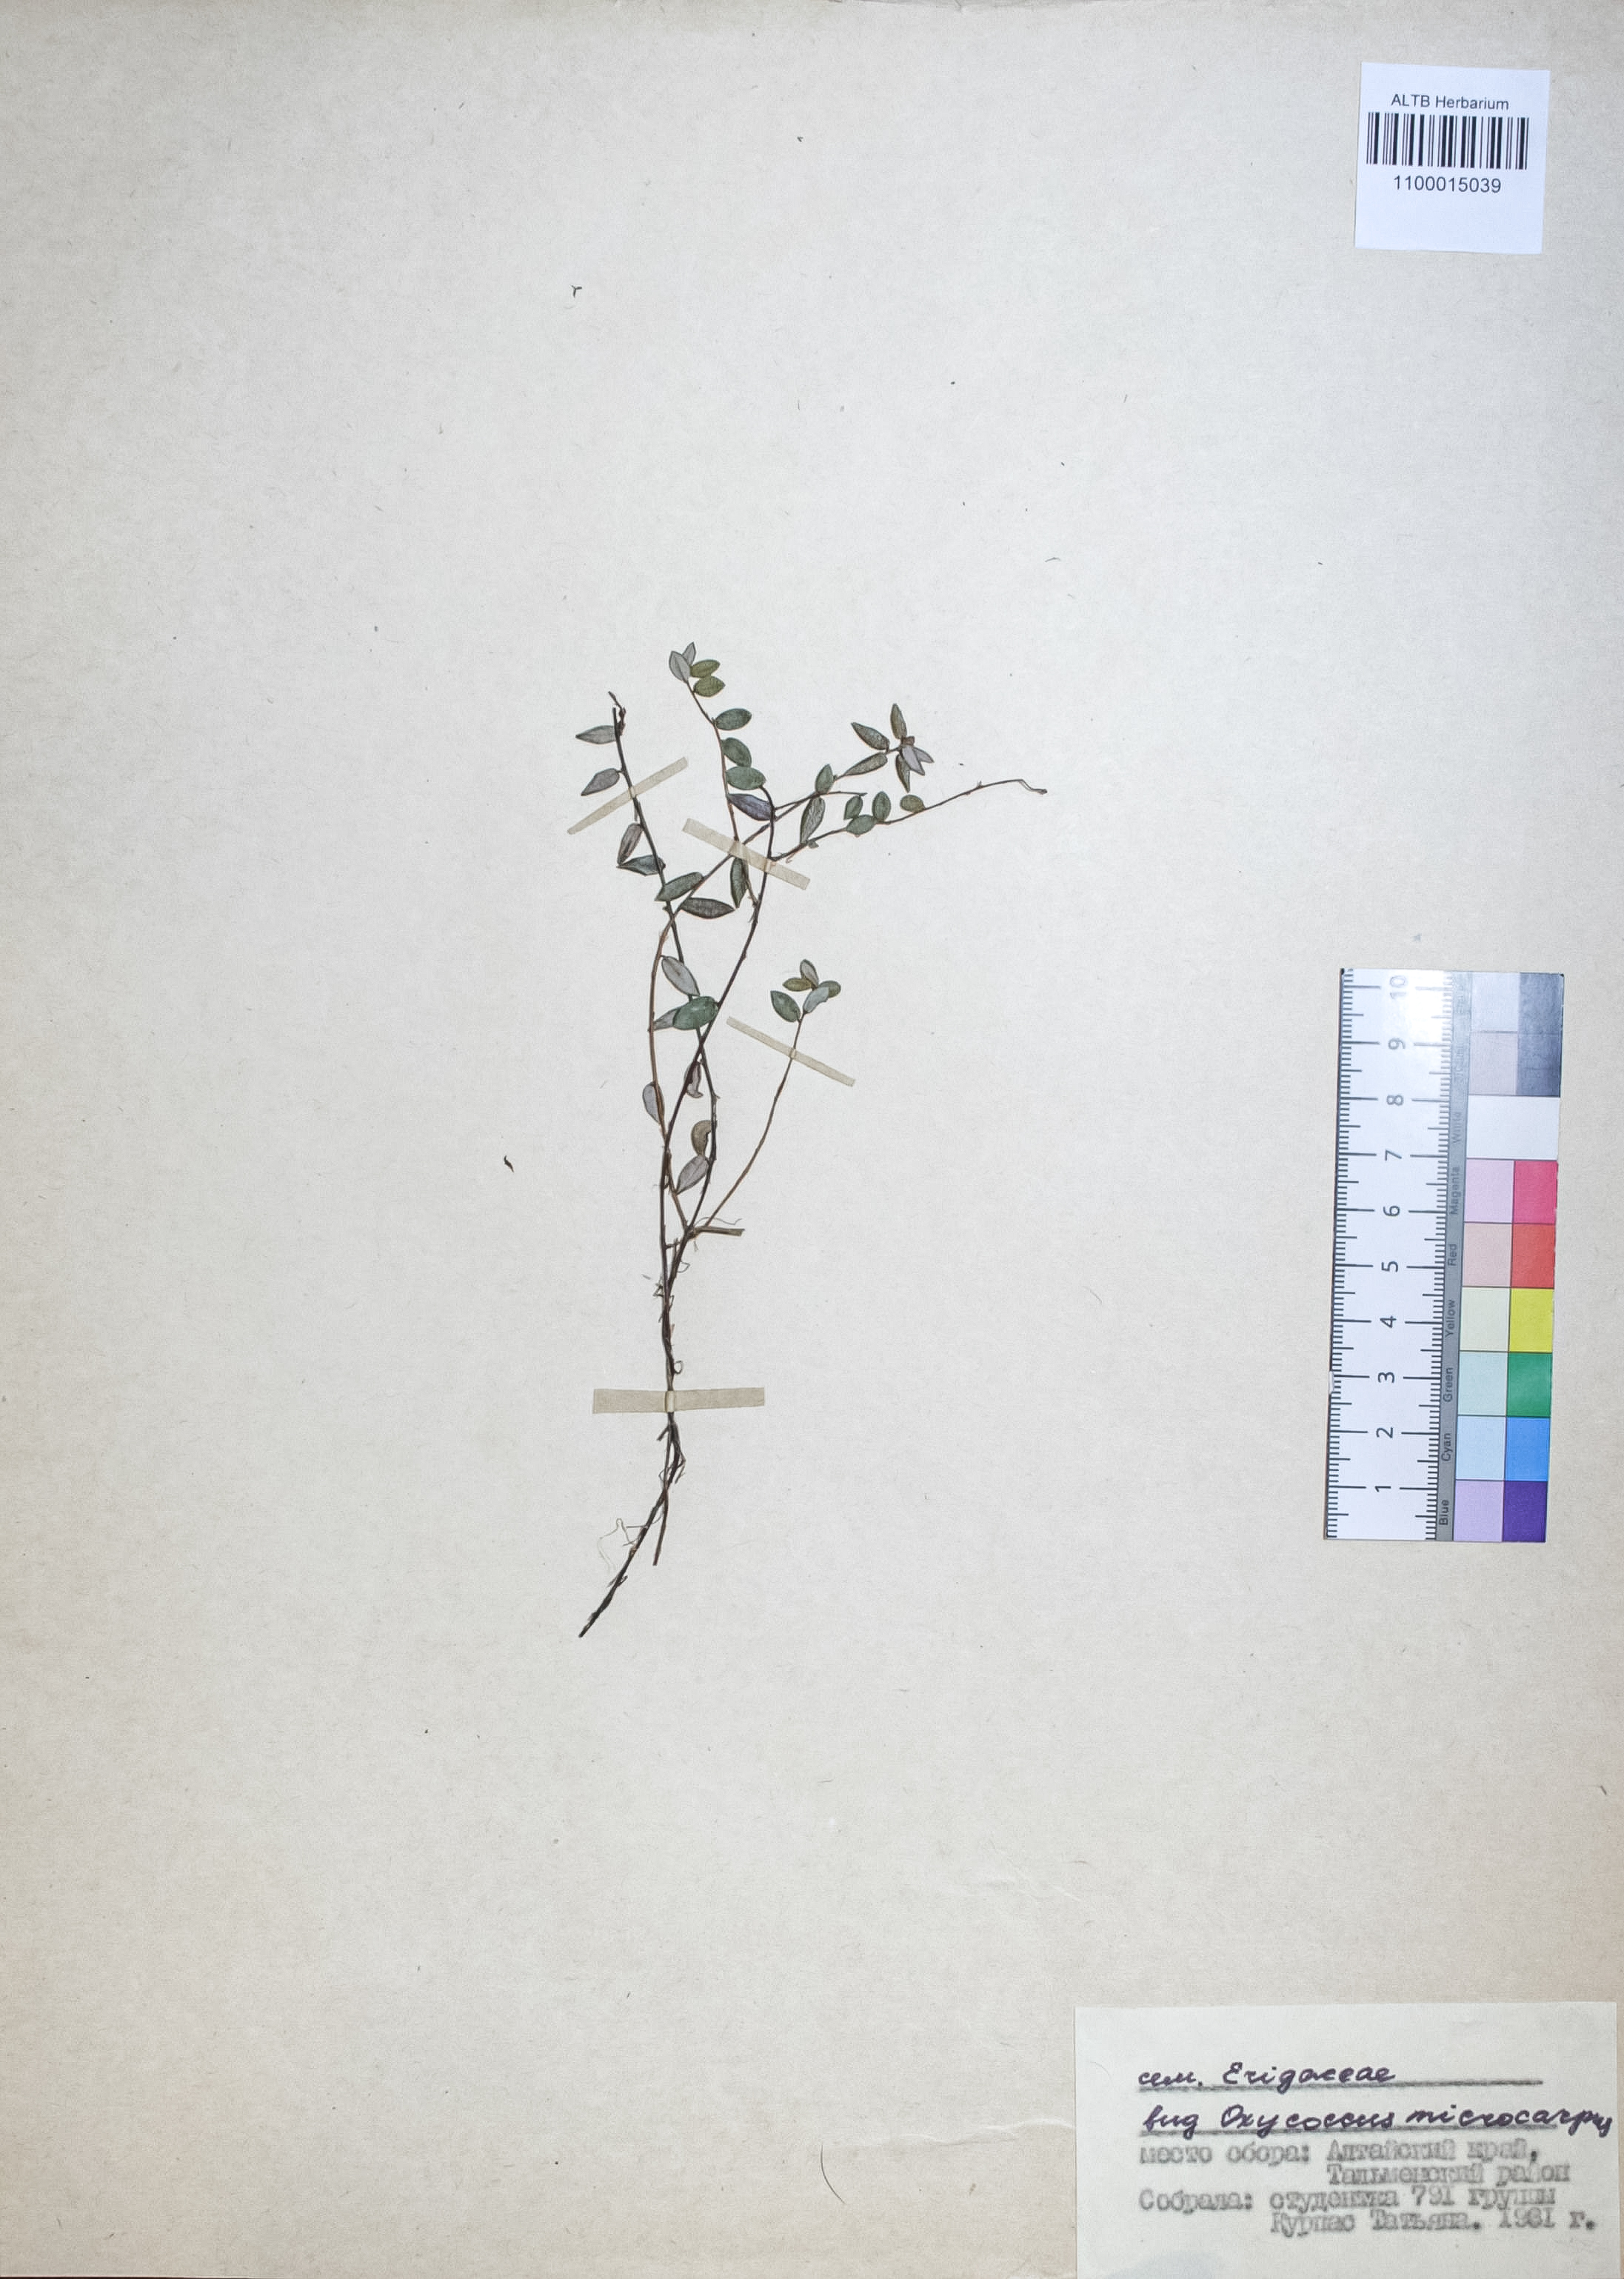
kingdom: Plantae
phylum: Tracheophyta
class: Magnoliopsida
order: Ericales
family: Ericaceae
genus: Rhododendron
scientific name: Rhododendron tomentosum
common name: Marsh labrador tea
